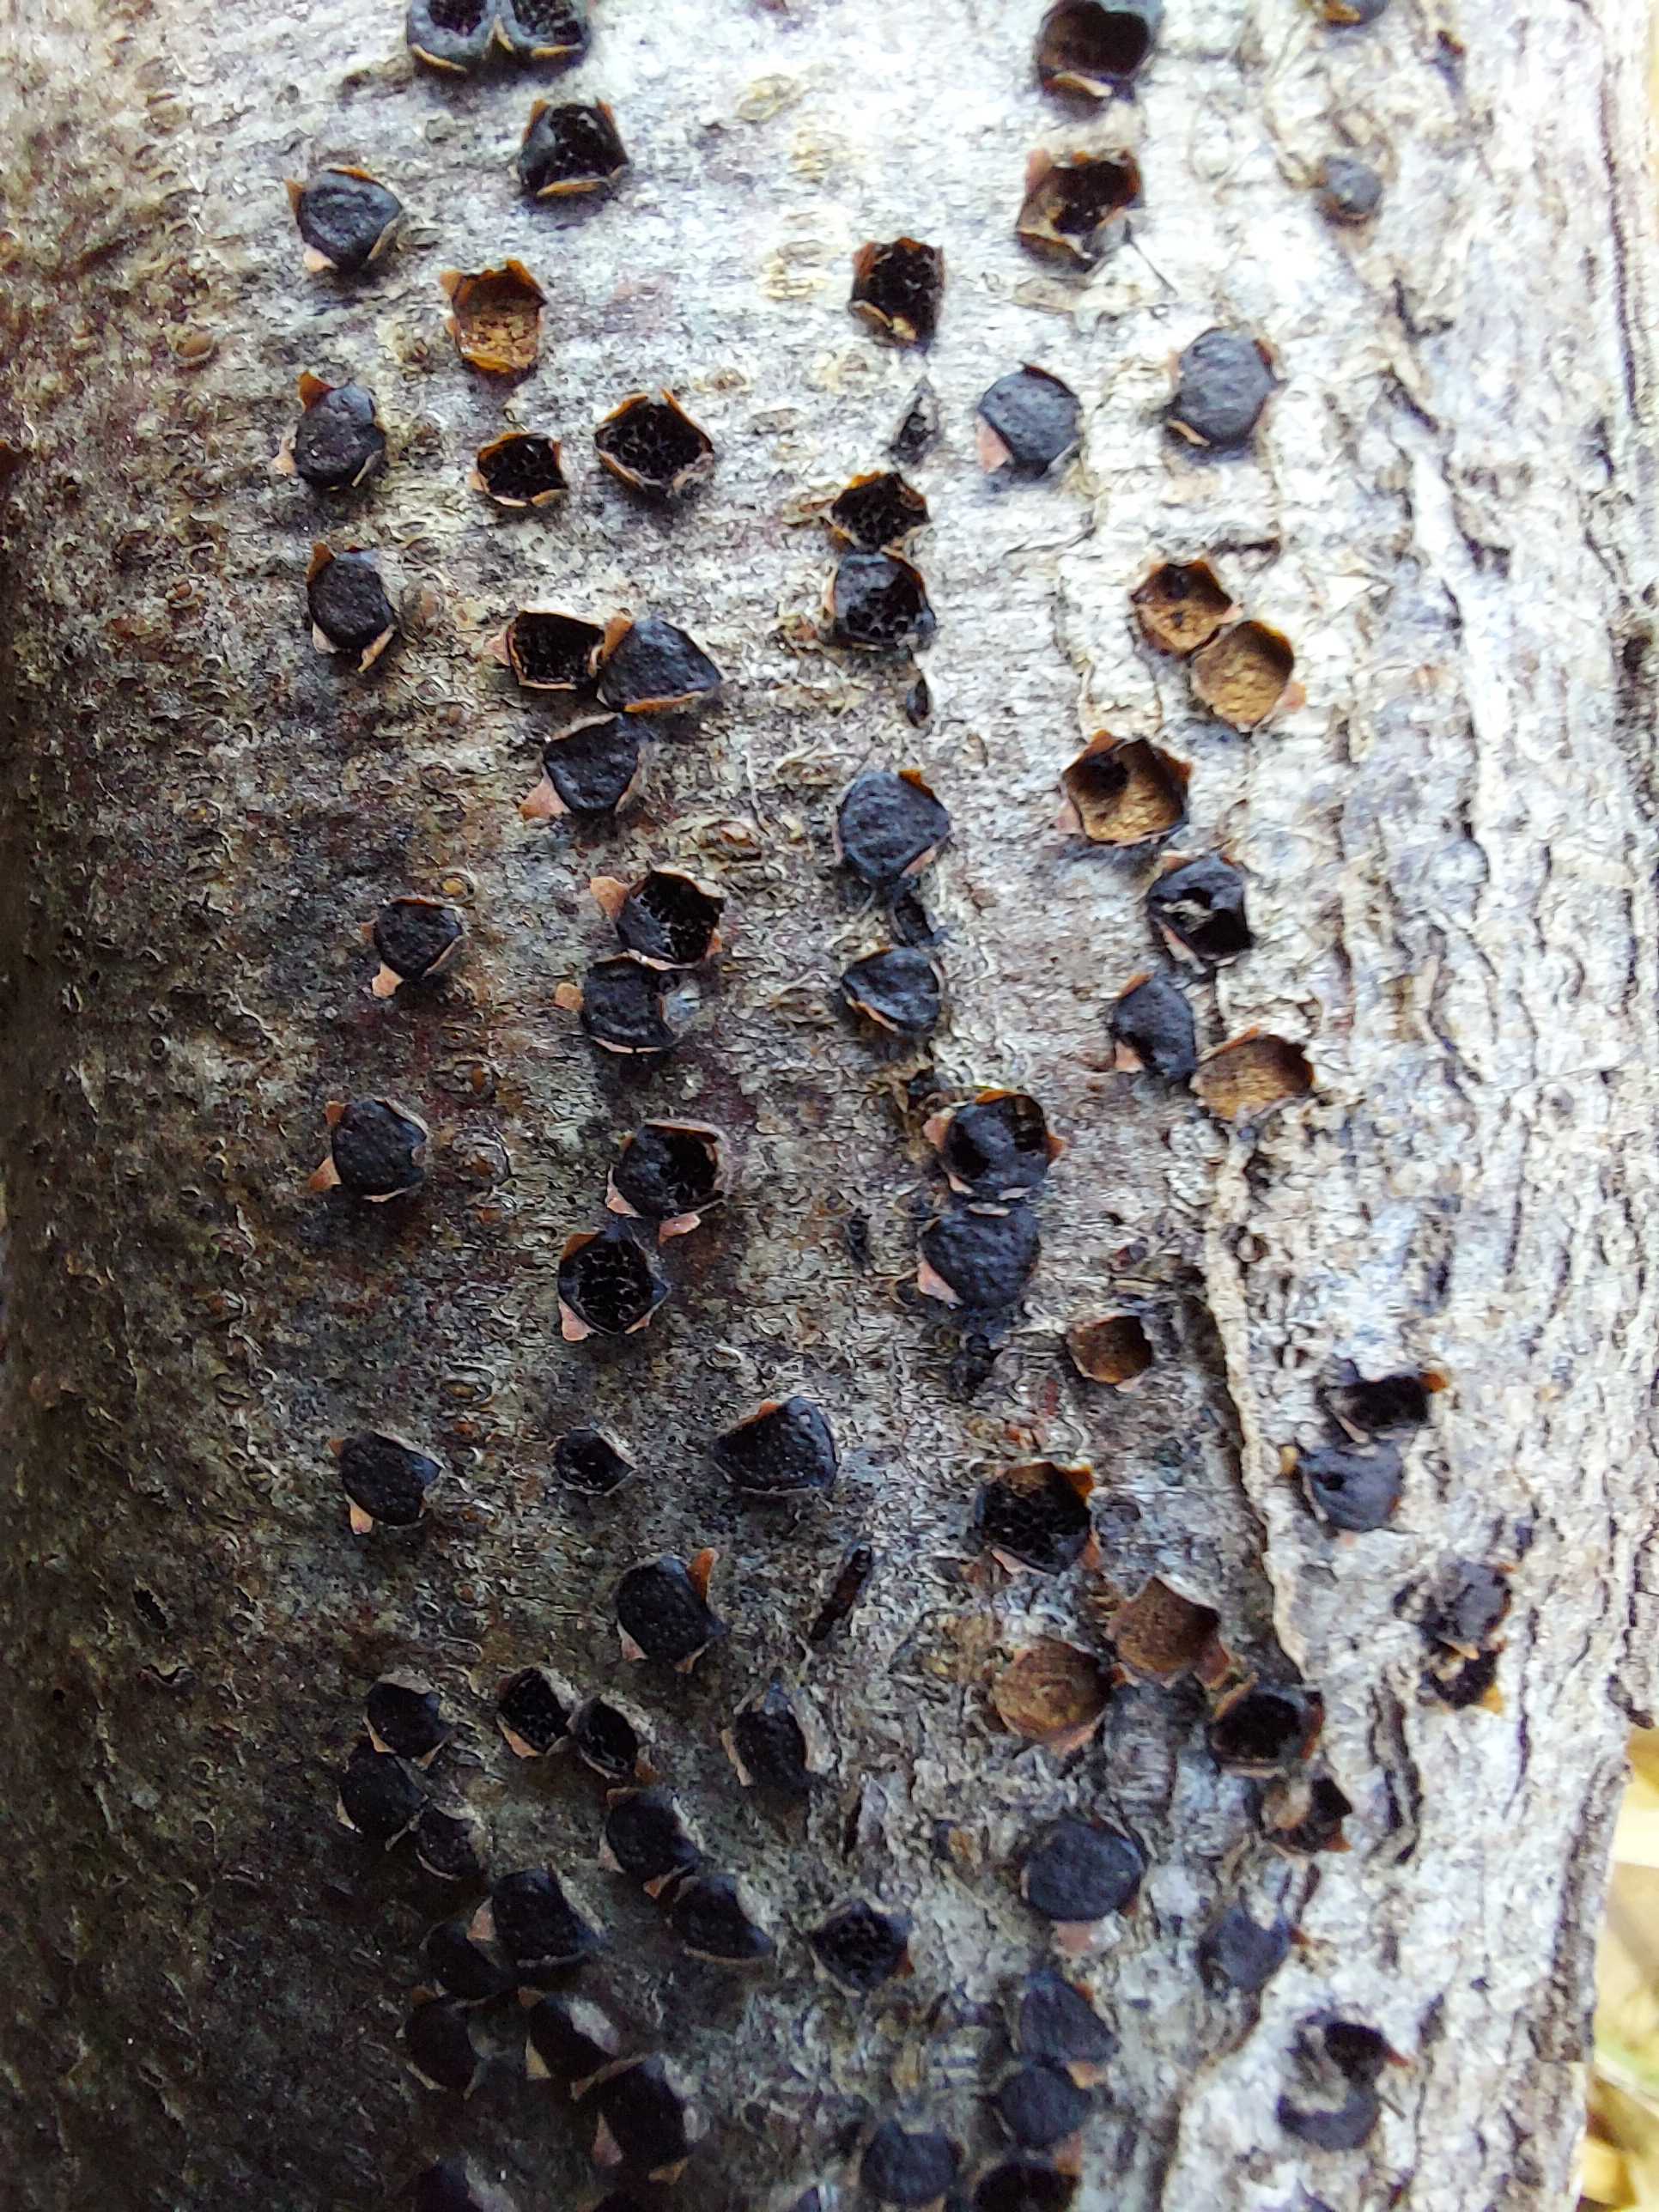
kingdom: Fungi
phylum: Ascomycota
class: Sordariomycetes
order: Xylariales
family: Diatrypaceae
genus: Diatrype
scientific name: Diatrype disciformis
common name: kant-kulskorpe
